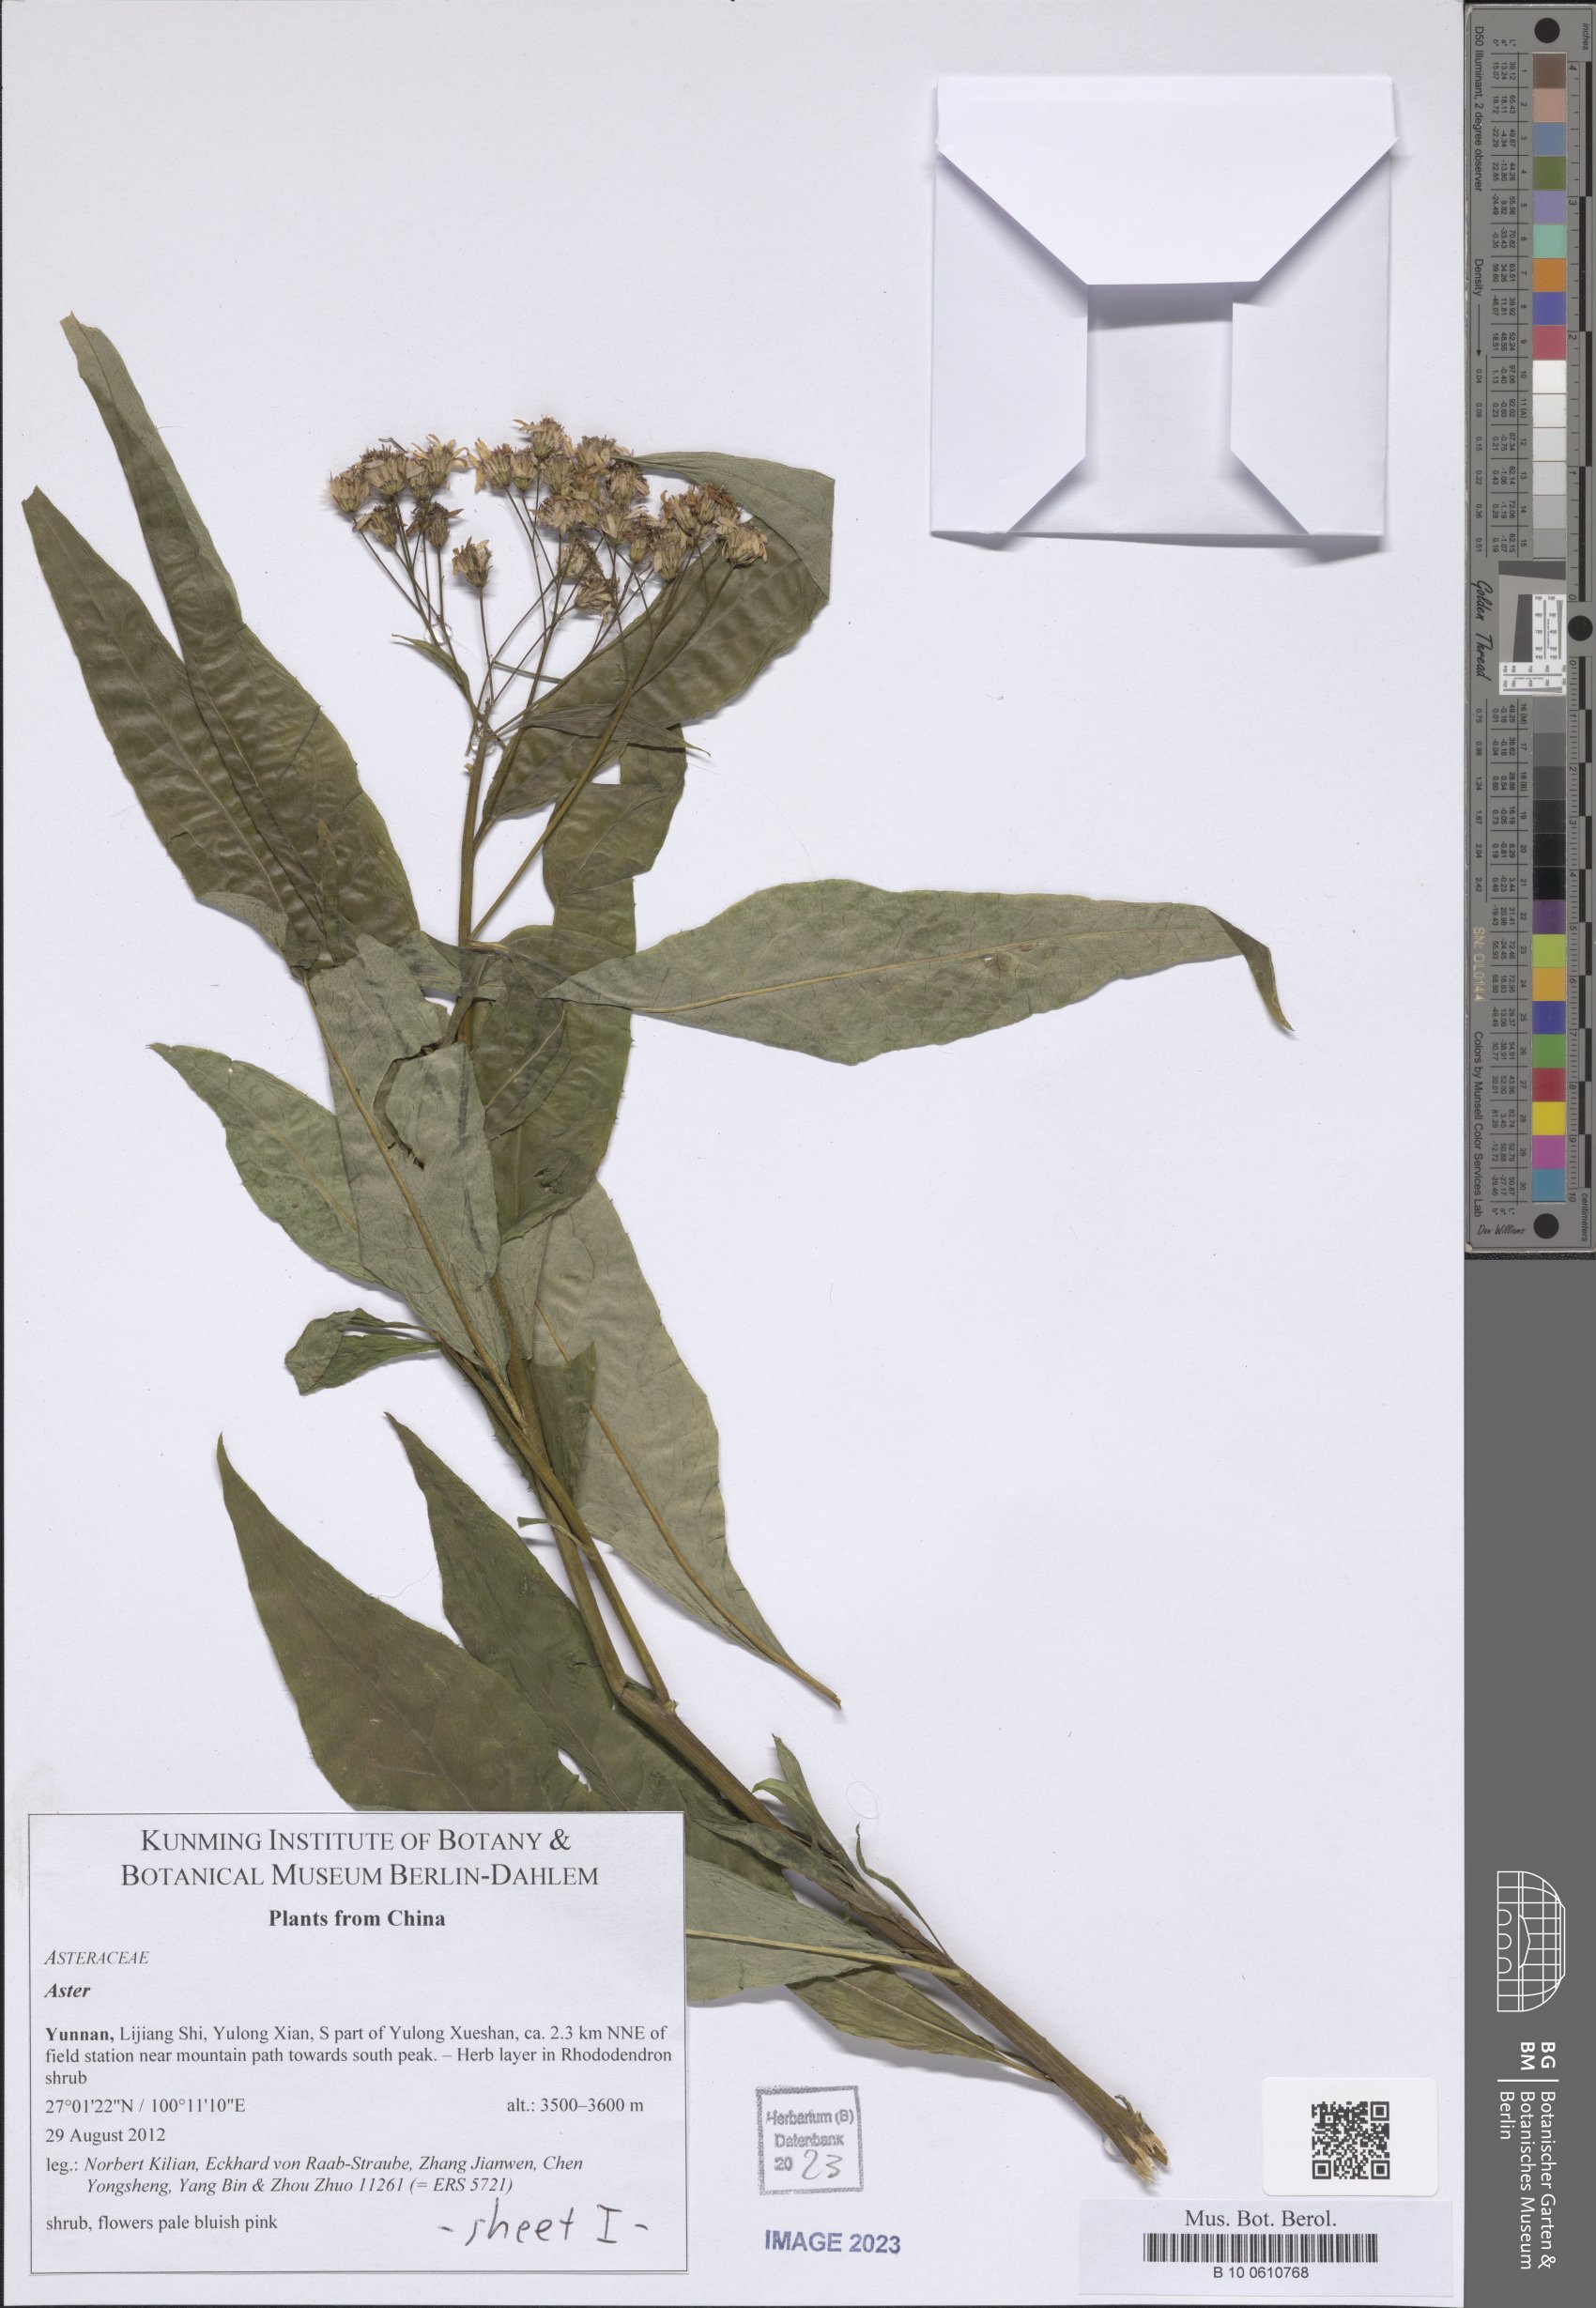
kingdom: Plantae
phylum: Tracheophyta
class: Magnoliopsida
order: Asterales
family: Asteraceae
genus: Aster
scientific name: Aster
